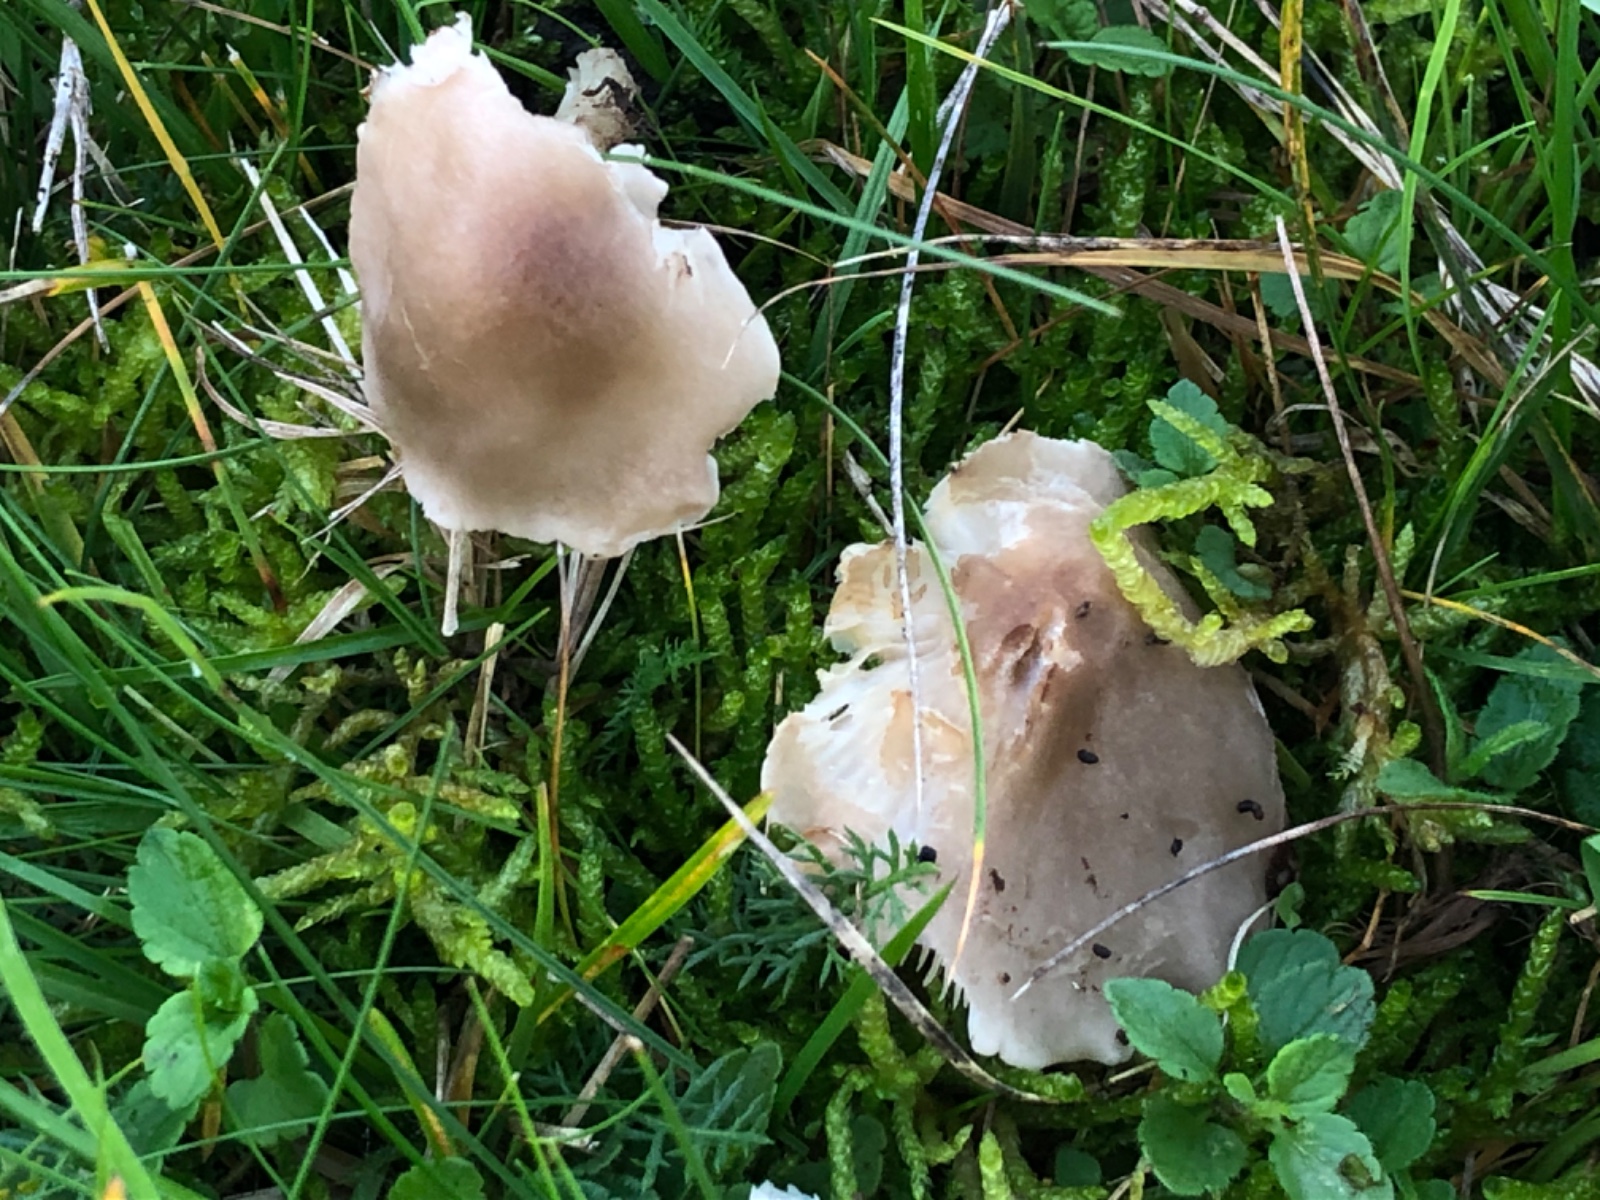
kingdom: Fungi
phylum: Basidiomycota
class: Agaricomycetes
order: Agaricales
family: Tricholomataceae
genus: Dermoloma
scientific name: Dermoloma cuneifolium
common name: eng-nonnehat
